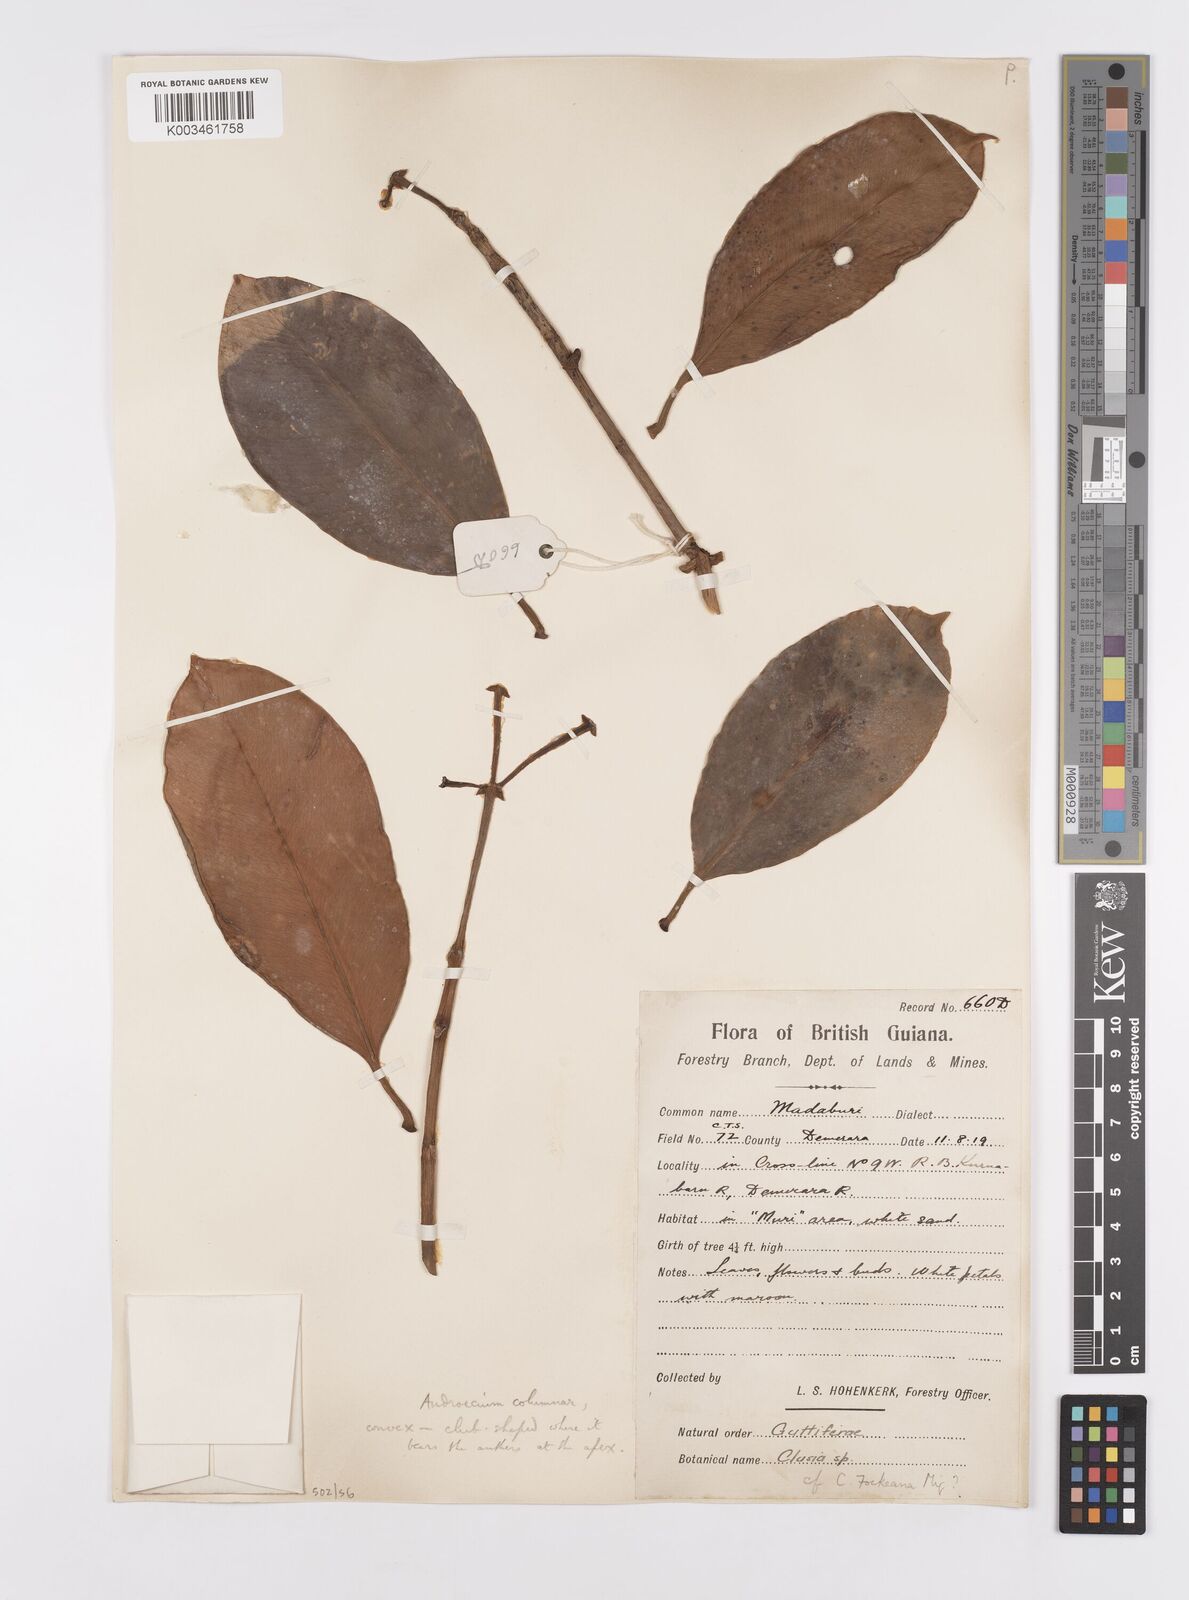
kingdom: Plantae
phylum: Tracheophyta
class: Magnoliopsida
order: Malpighiales
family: Clusiaceae
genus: Clusia
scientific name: Clusia fockeana
